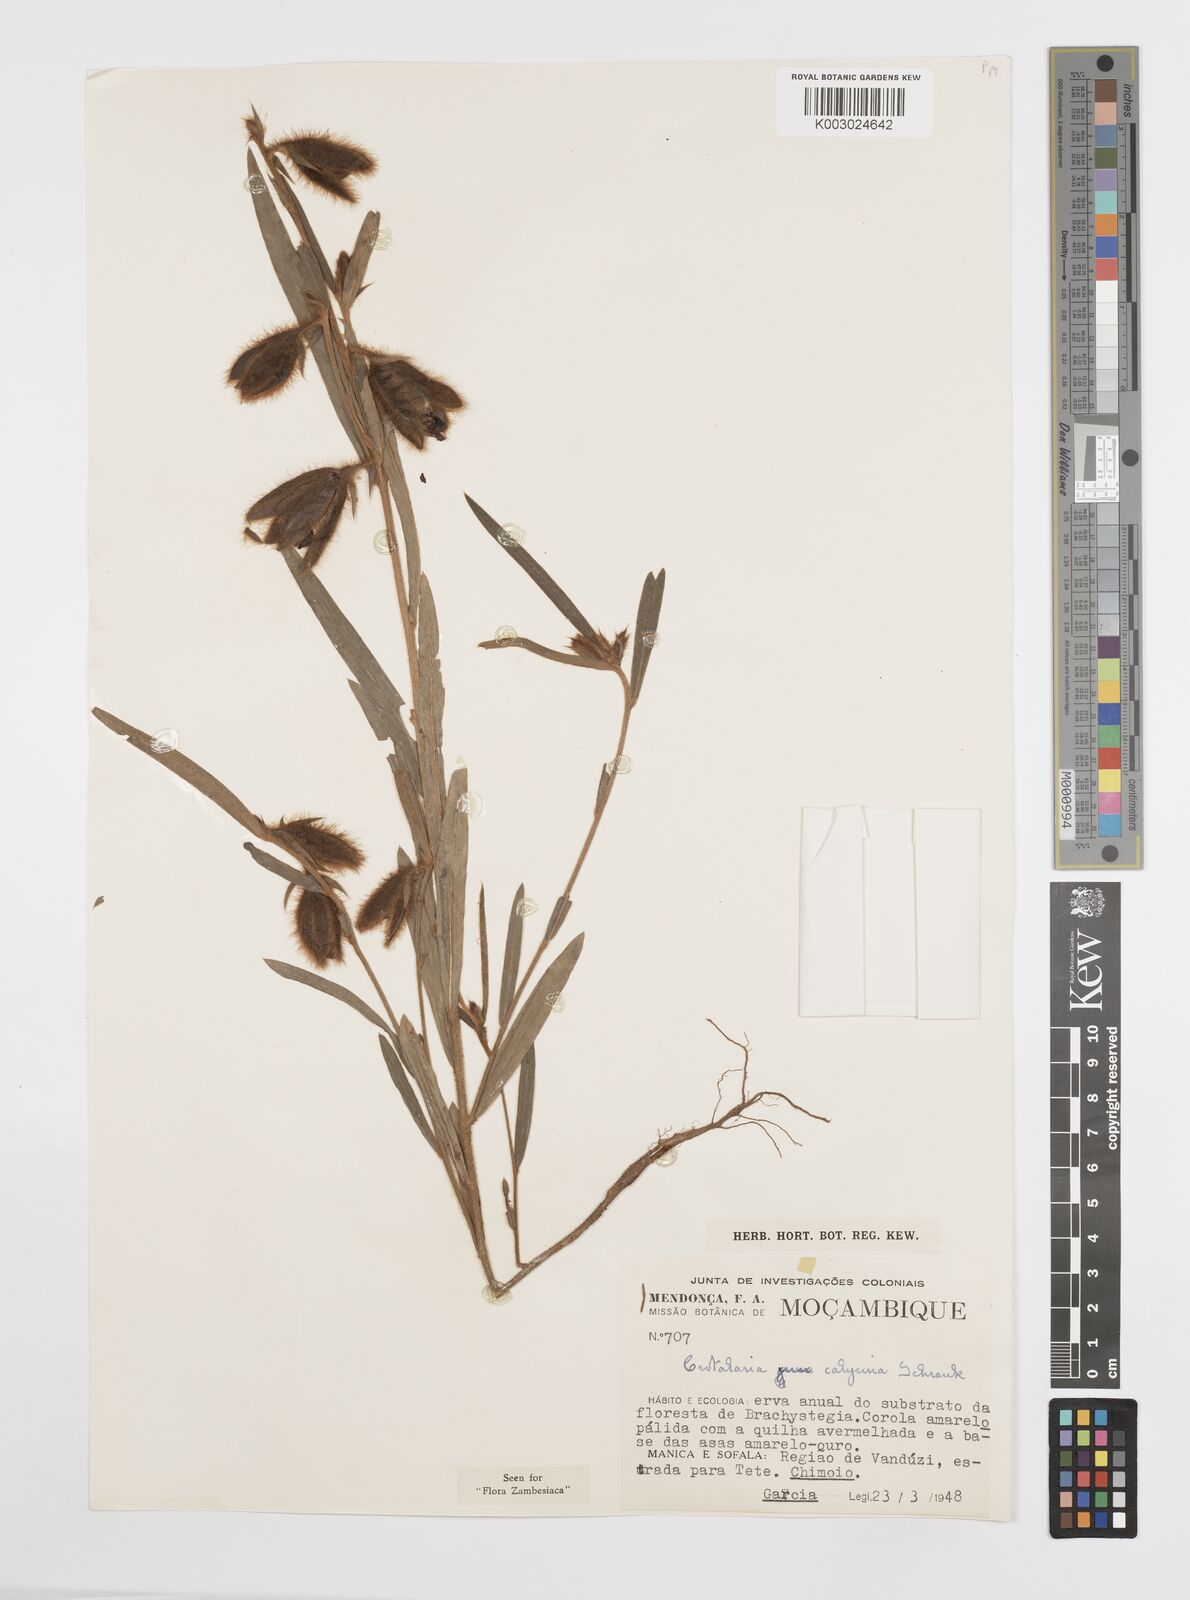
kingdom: Plantae
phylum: Tracheophyta
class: Magnoliopsida
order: Fabales
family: Fabaceae
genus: Crotalaria
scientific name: Crotalaria calycina
